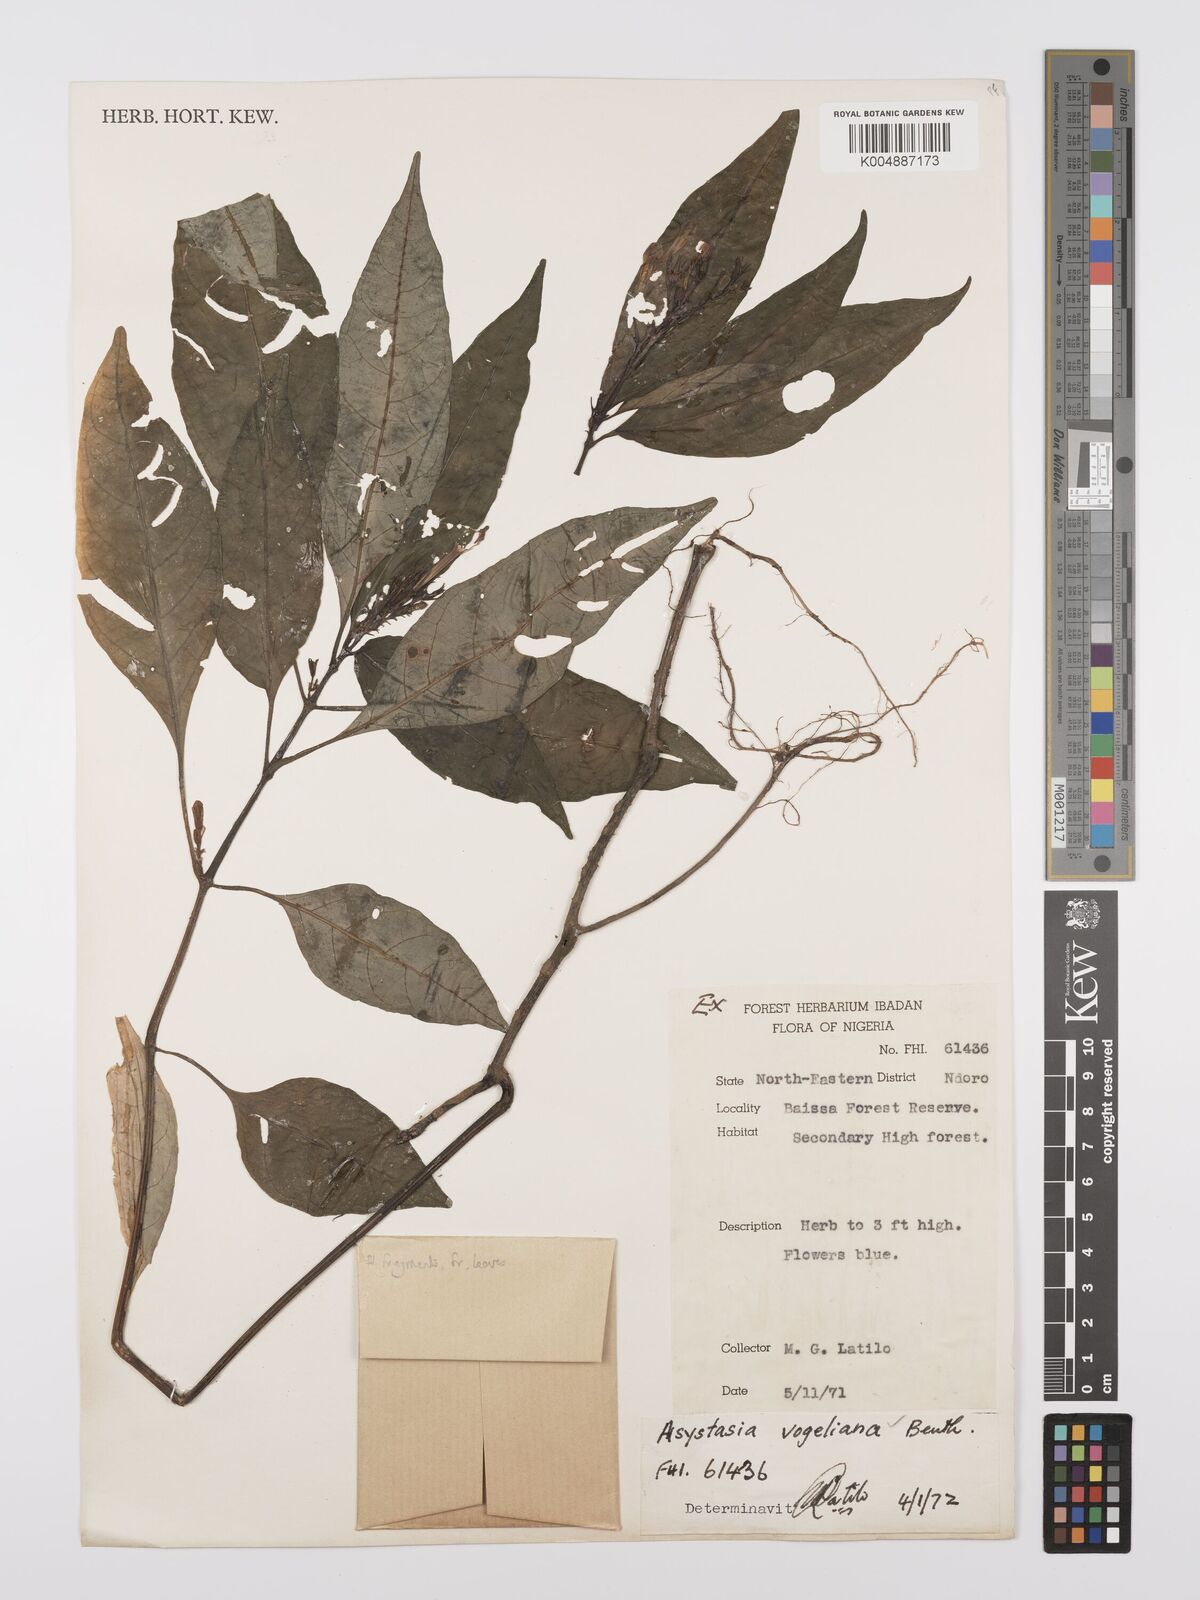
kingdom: Plantae
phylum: Tracheophyta
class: Magnoliopsida
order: Lamiales
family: Acanthaceae
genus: Asystasia
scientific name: Asystasia vogeliana
